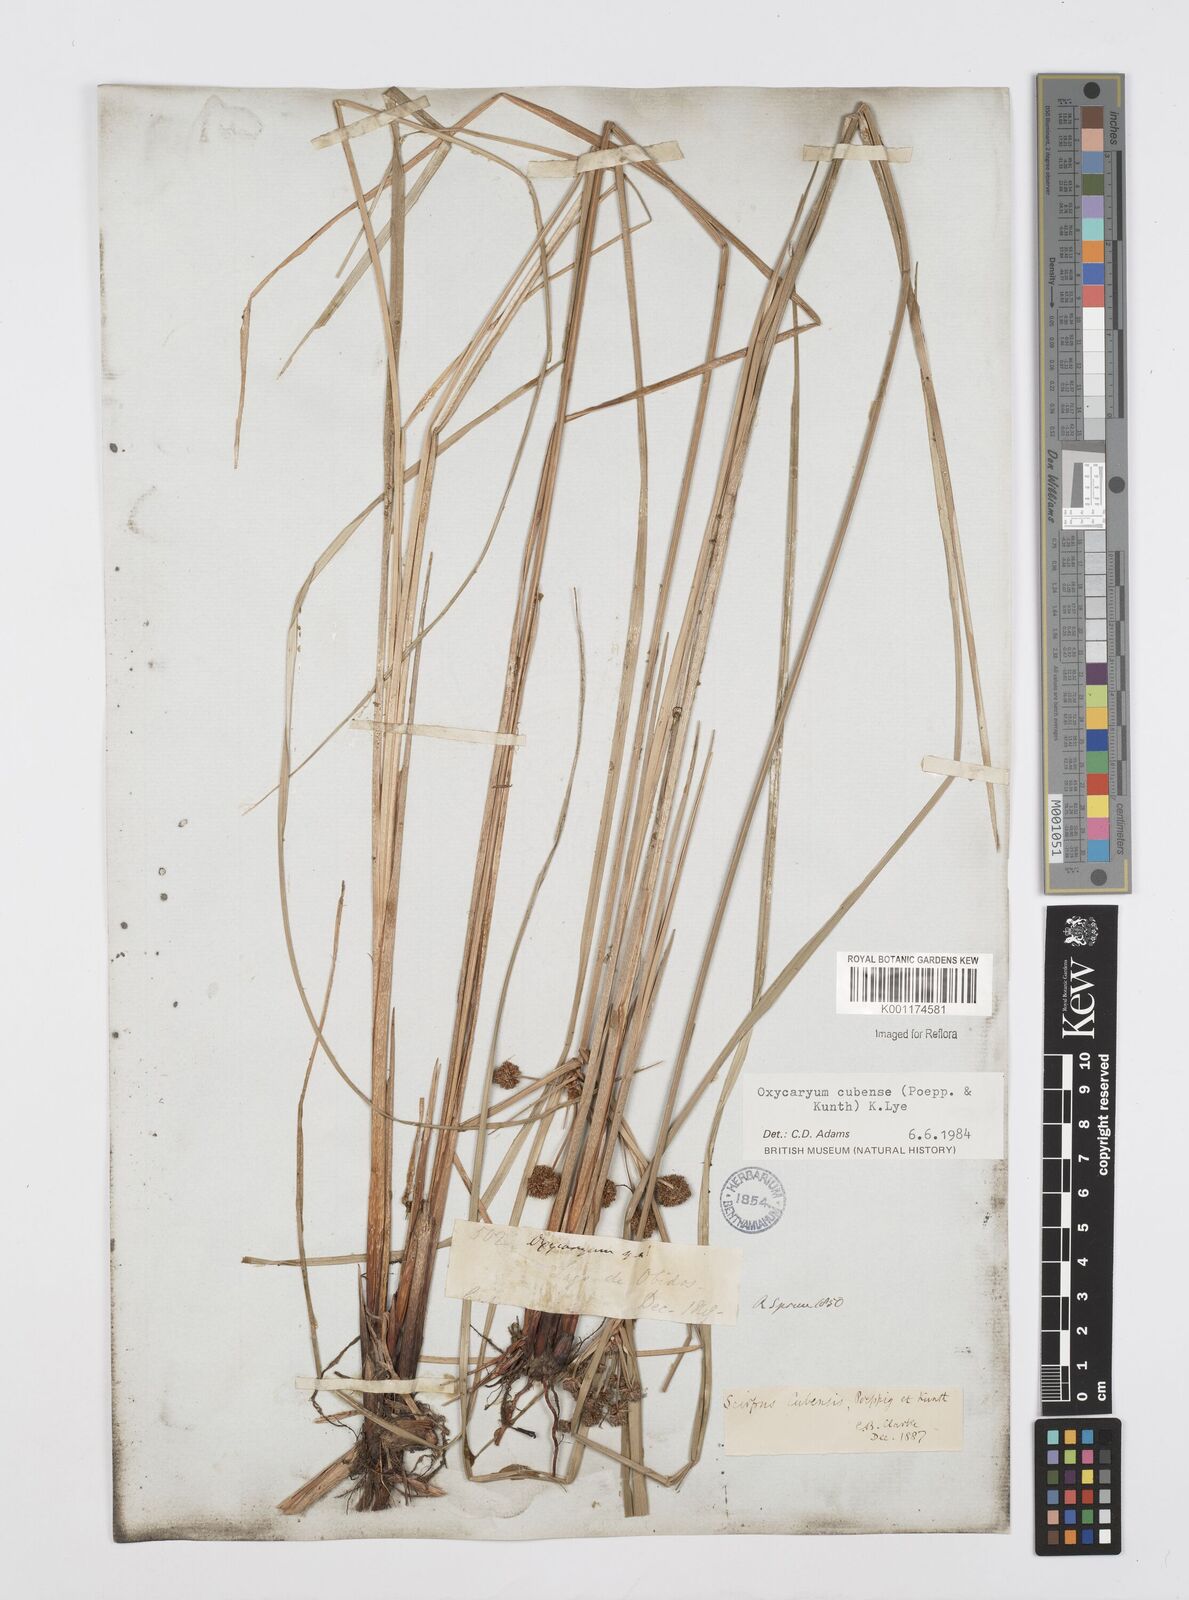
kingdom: Plantae
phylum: Tracheophyta
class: Liliopsida
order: Poales
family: Cyperaceae
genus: Cyperus
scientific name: Cyperus elegans
